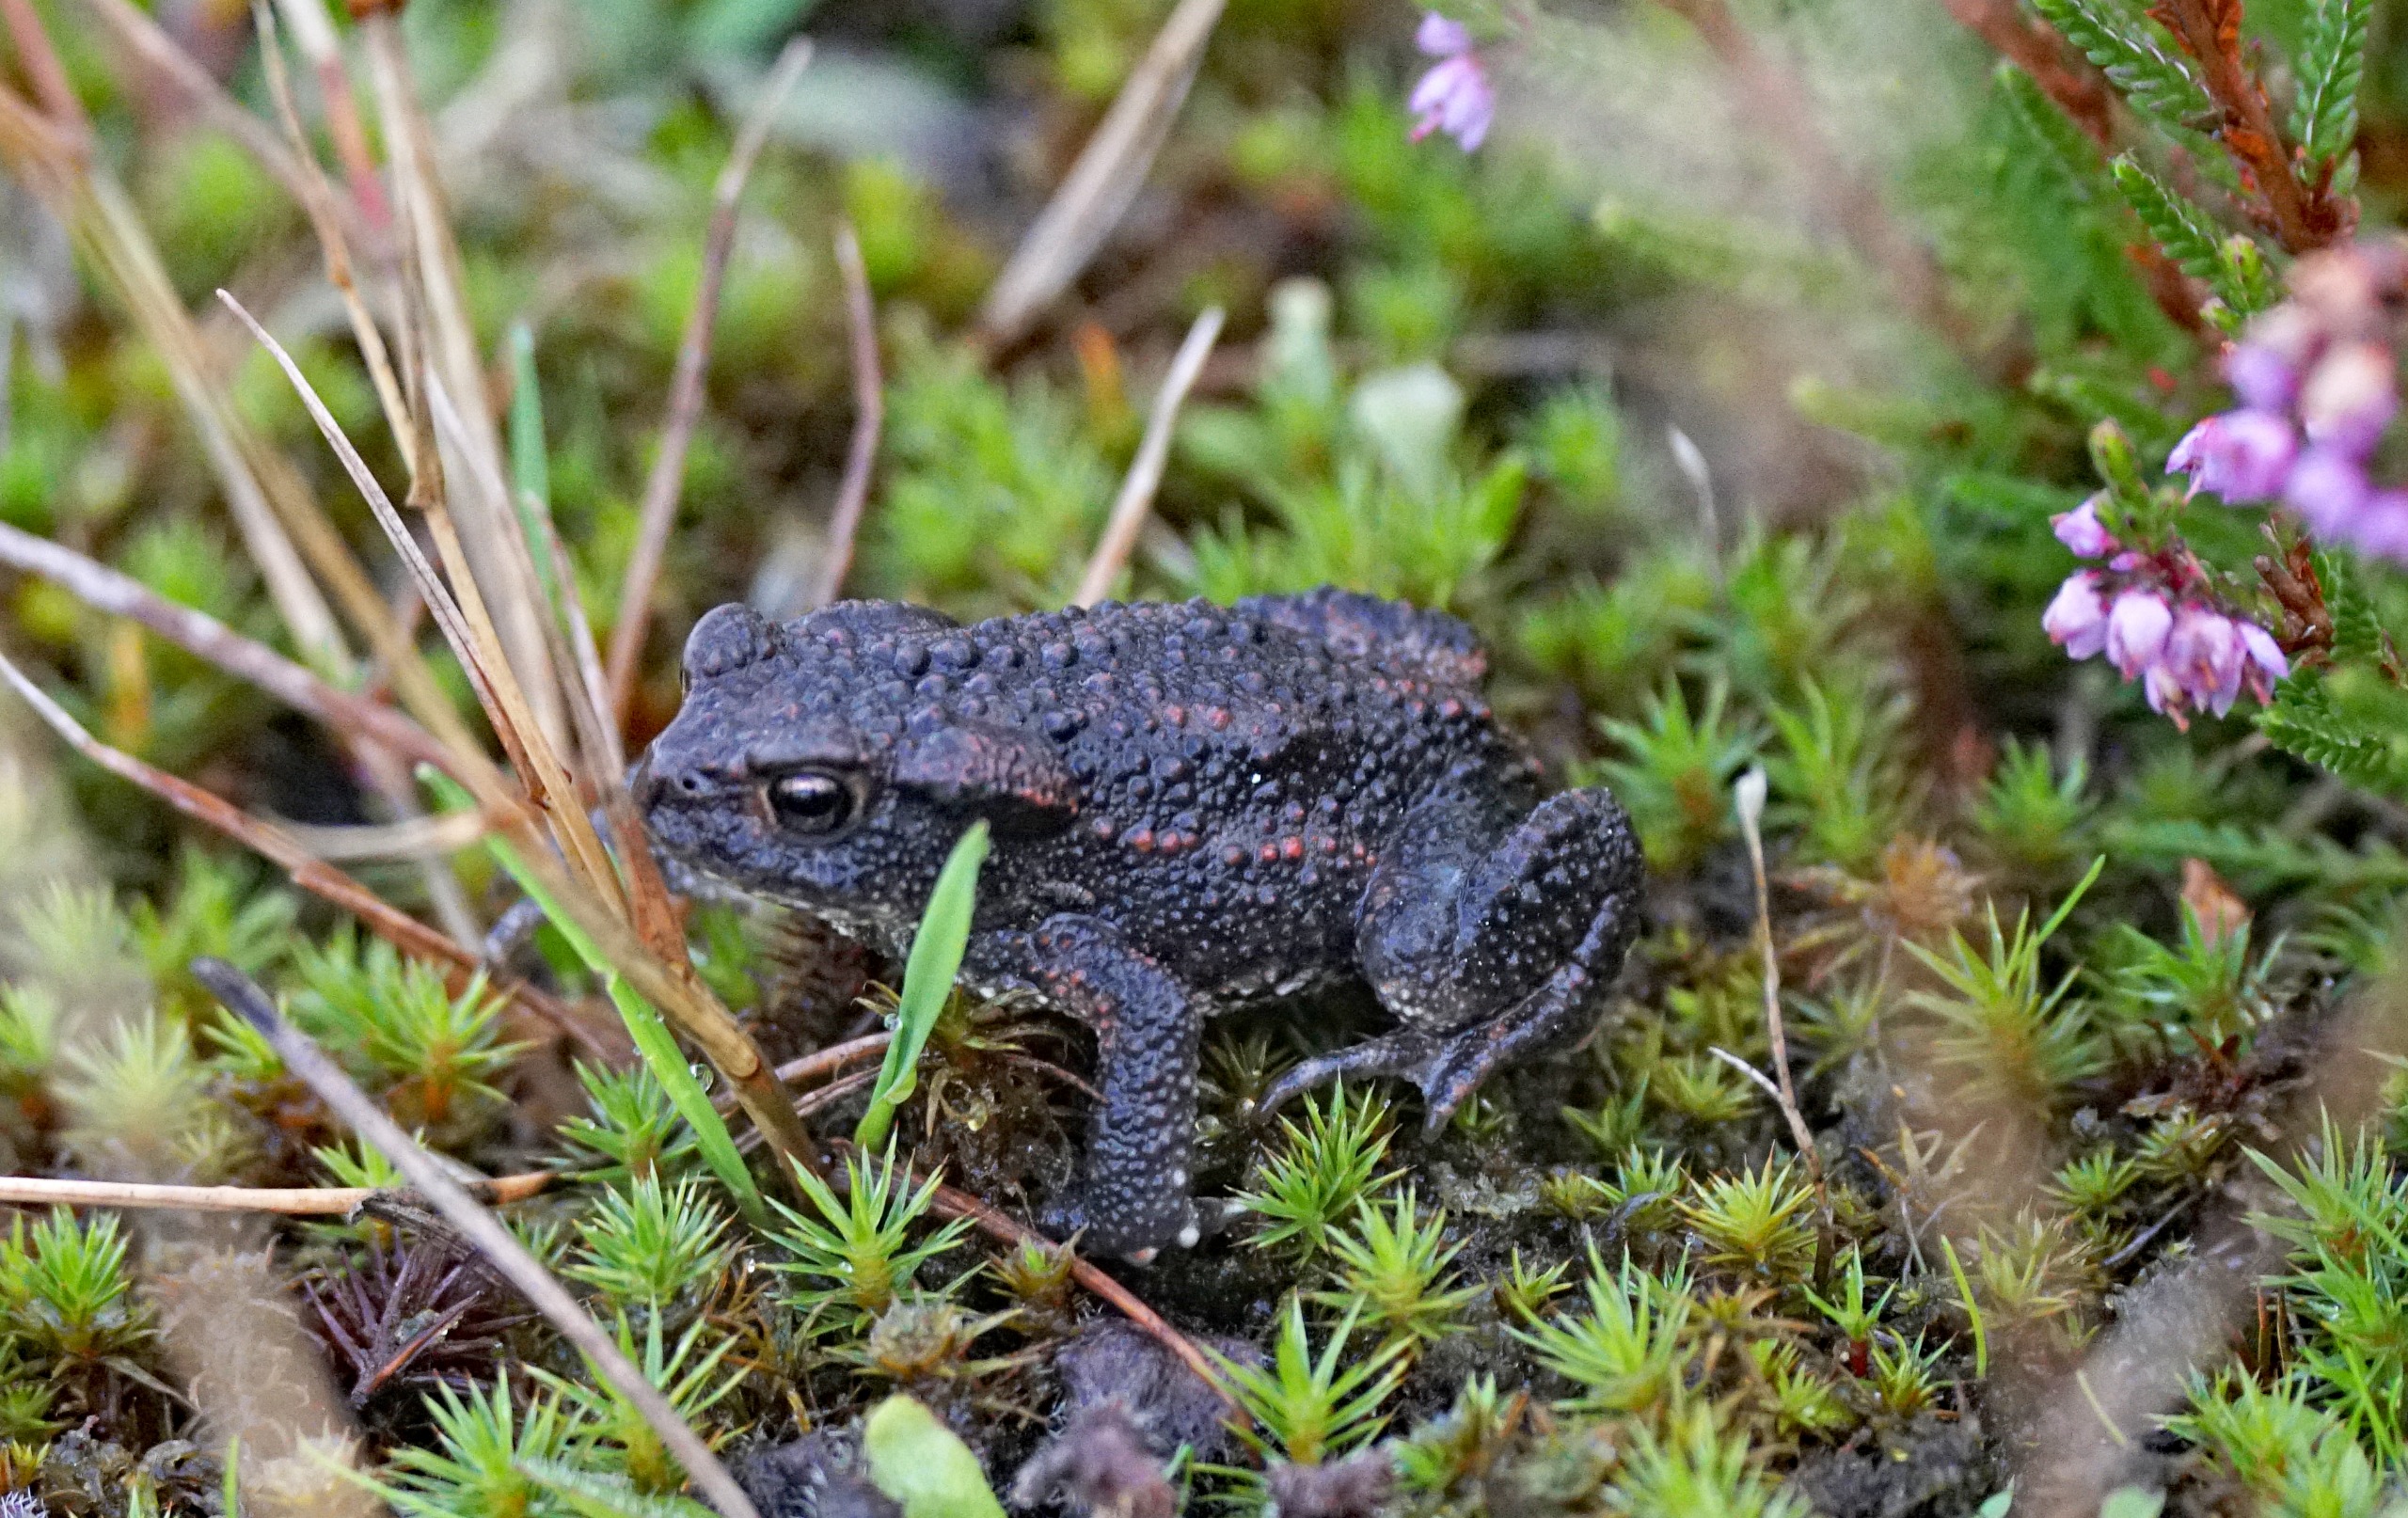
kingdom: Animalia
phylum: Chordata
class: Amphibia
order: Anura
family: Bufonidae
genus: Bufo
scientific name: Bufo bufo
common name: Skrubtudse
